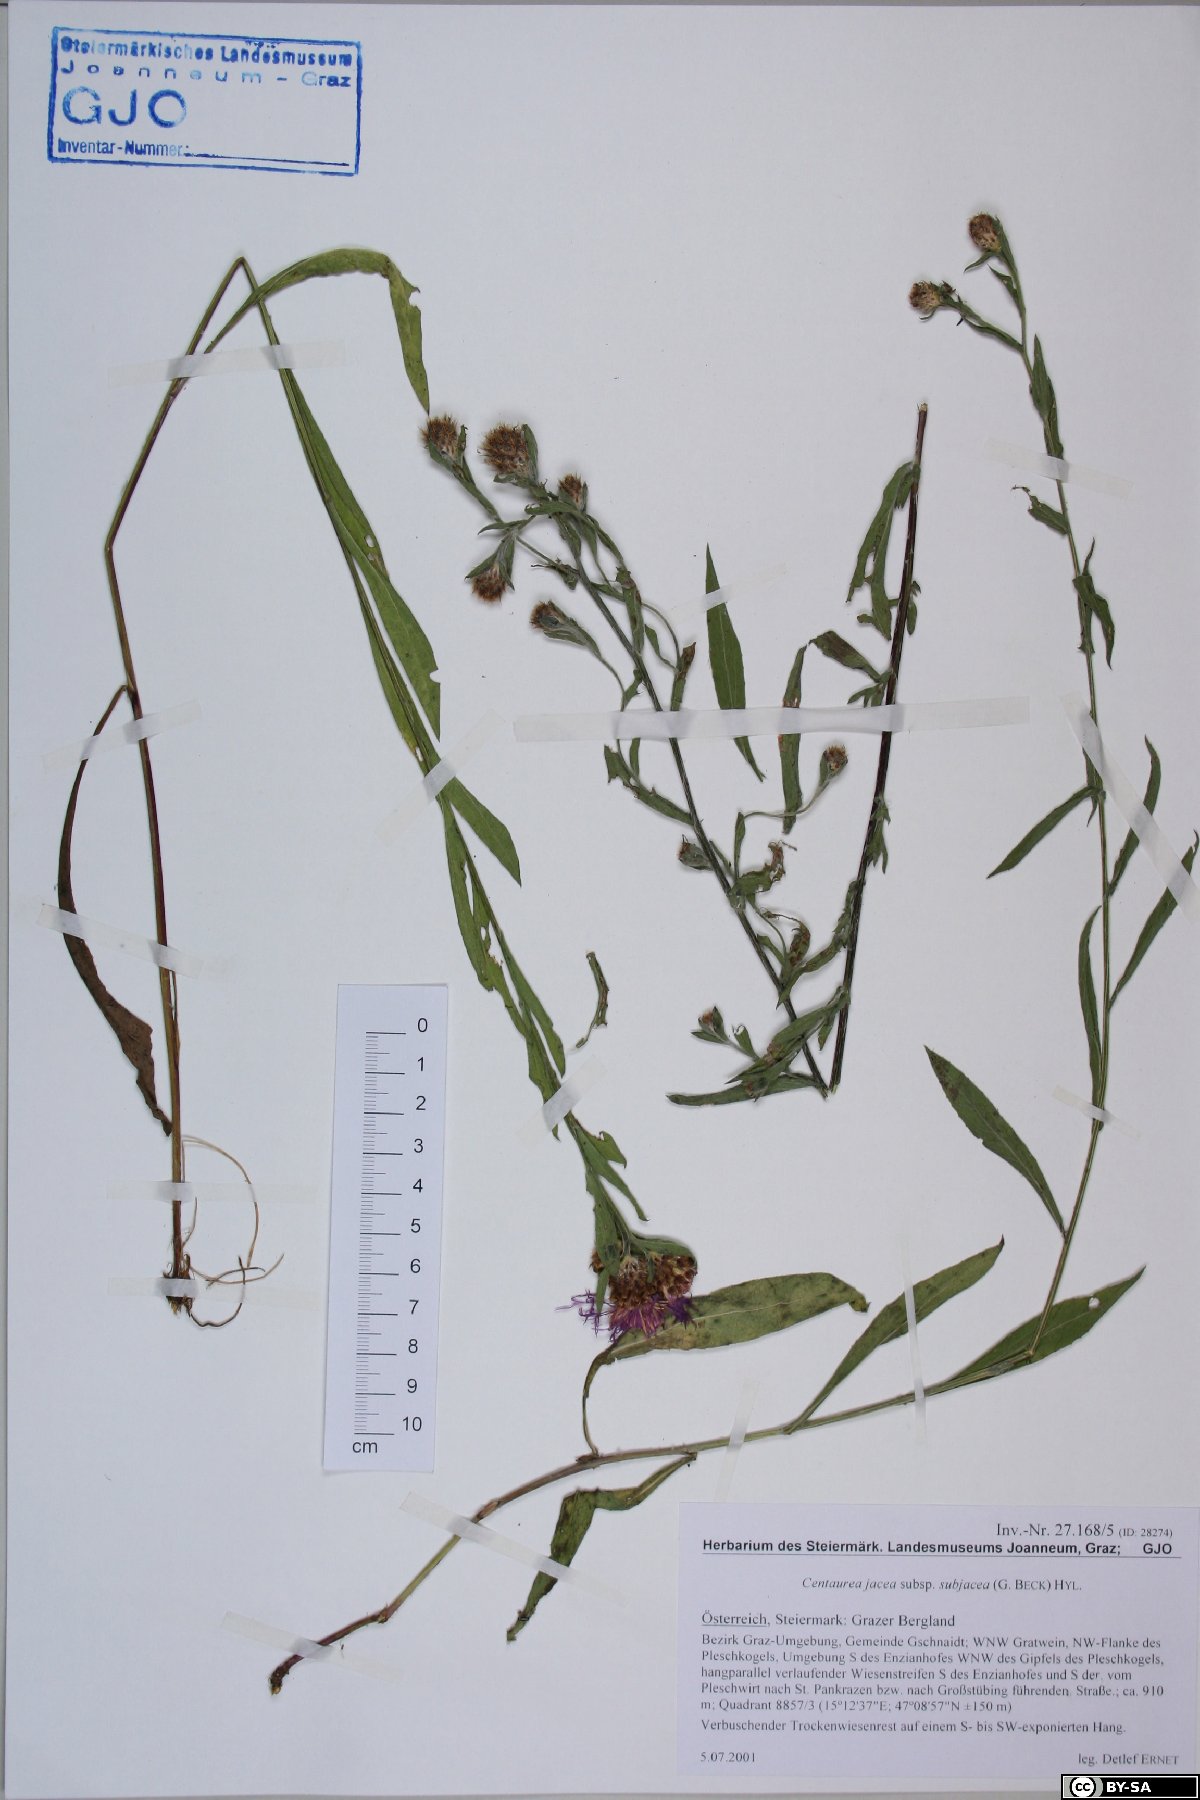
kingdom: Plantae
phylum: Tracheophyta
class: Magnoliopsida
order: Asterales
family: Asteraceae
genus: Centaurea
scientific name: Centaurea preissmannii
